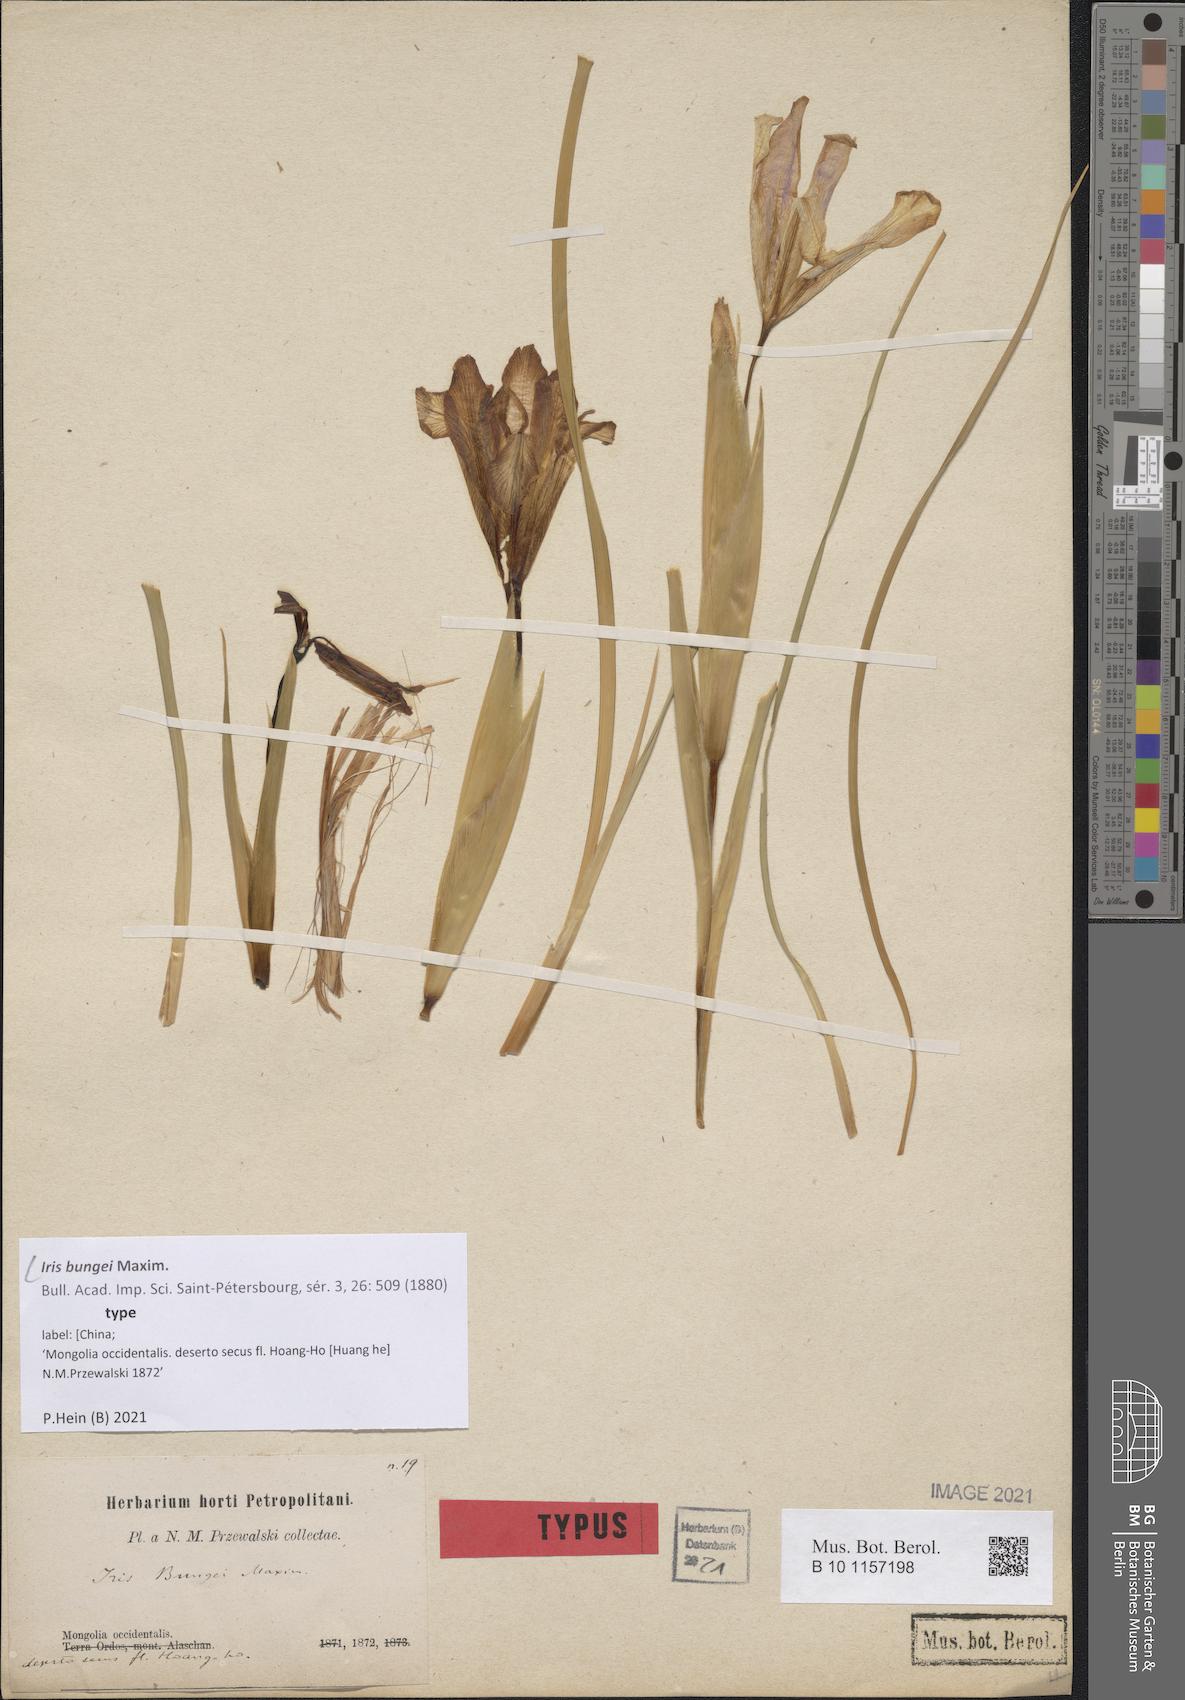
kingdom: Plantae
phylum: Tracheophyta
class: Liliopsida
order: Asparagales
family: Iridaceae
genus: Iris
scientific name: Iris bungei
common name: Large-bract iris
